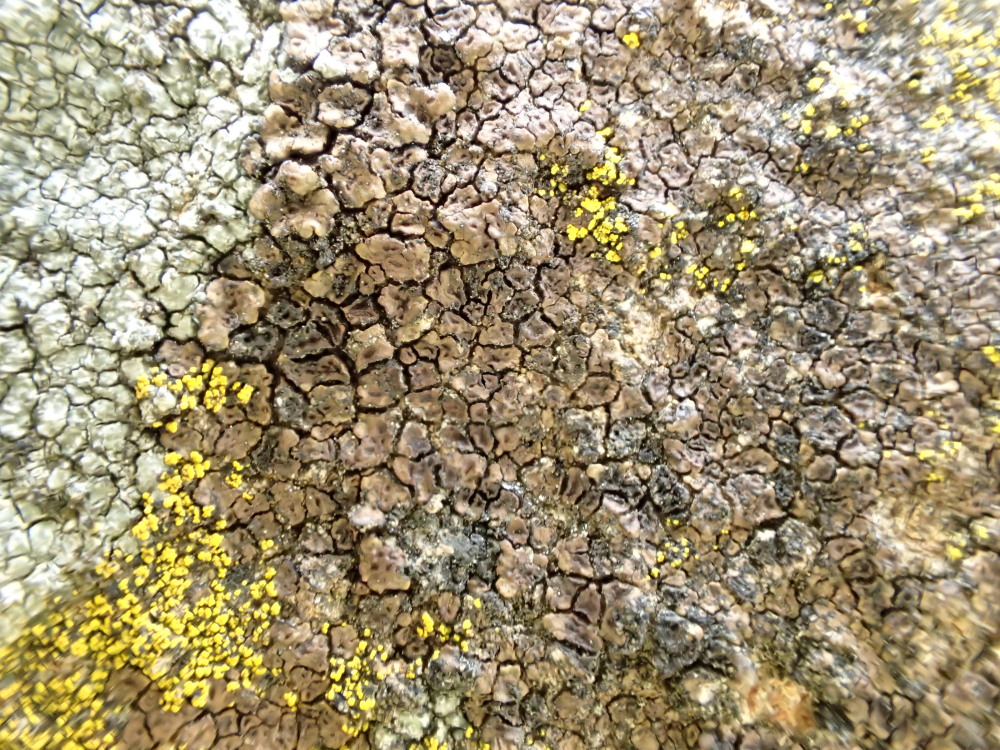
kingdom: Fungi
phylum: Ascomycota
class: Lecanoromycetes
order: Acarosporales
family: Acarosporaceae
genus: Acarospora
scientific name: Acarospora fuscata
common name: brun småsporelav
